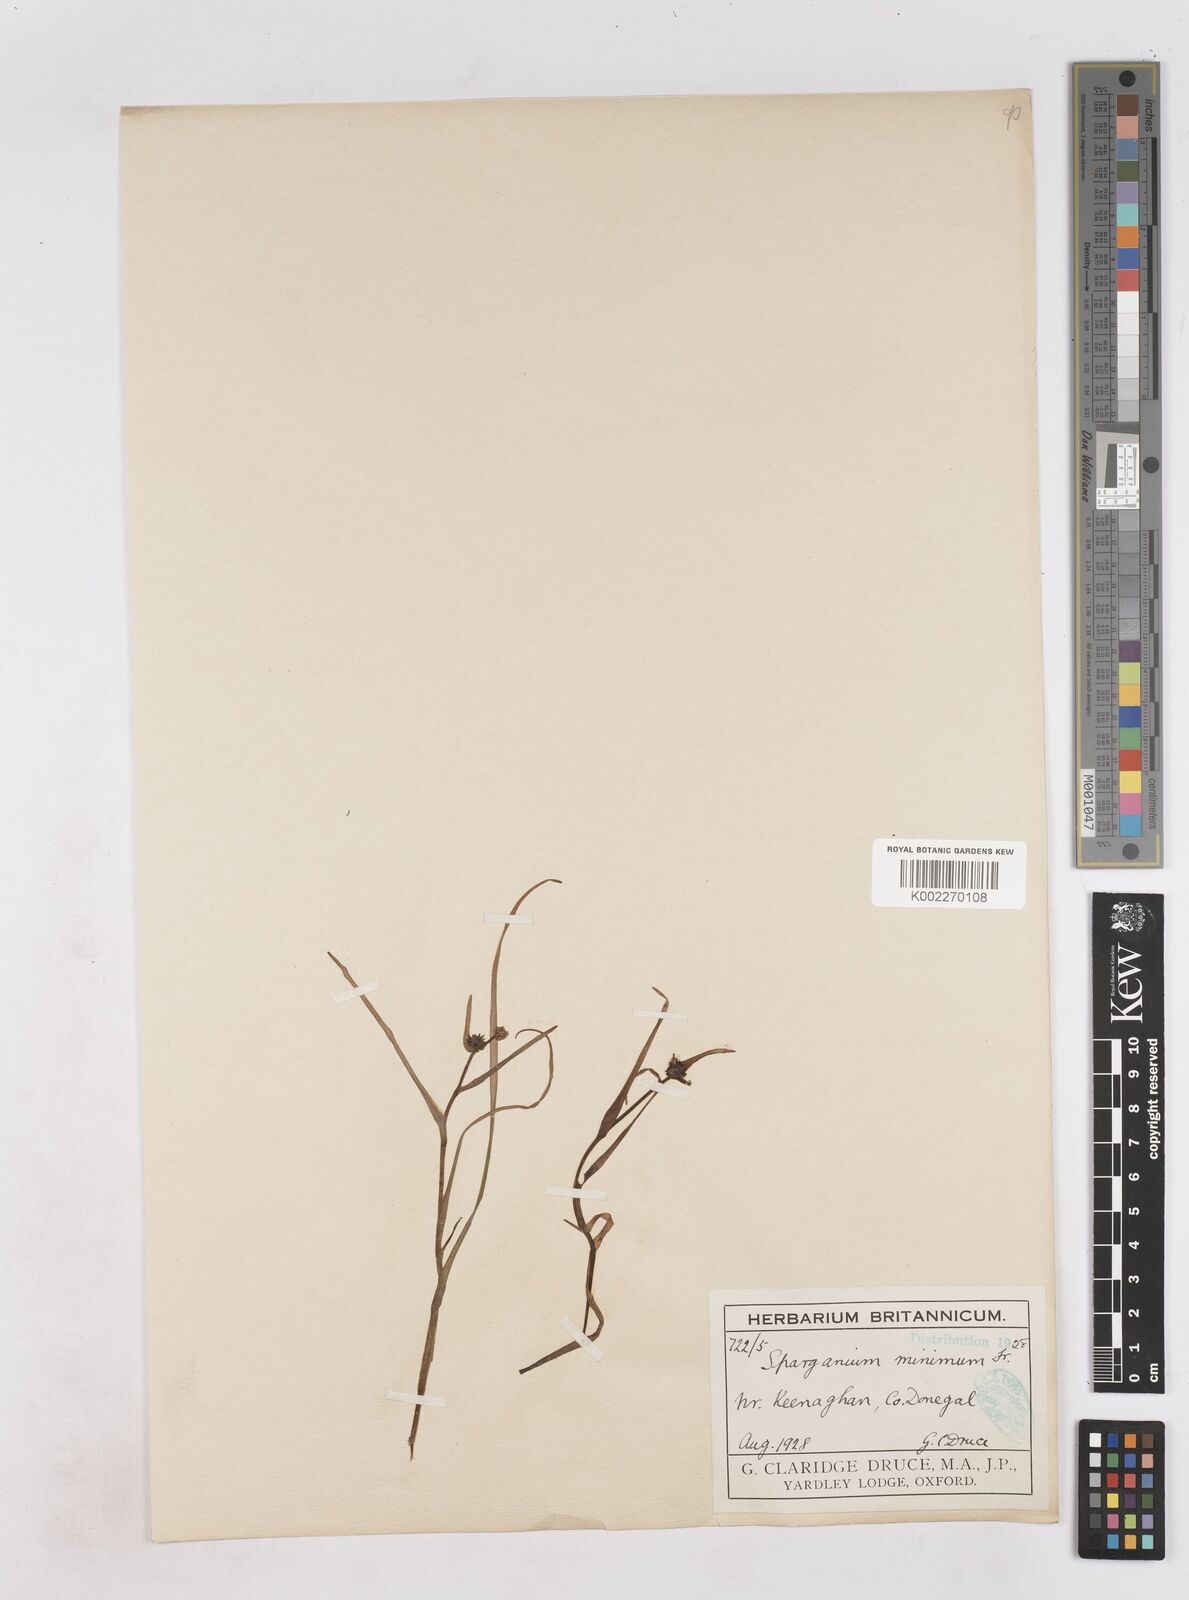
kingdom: Plantae
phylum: Tracheophyta
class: Liliopsida
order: Poales
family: Typhaceae
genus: Sparganium
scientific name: Sparganium natans
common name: Least bur-reed
